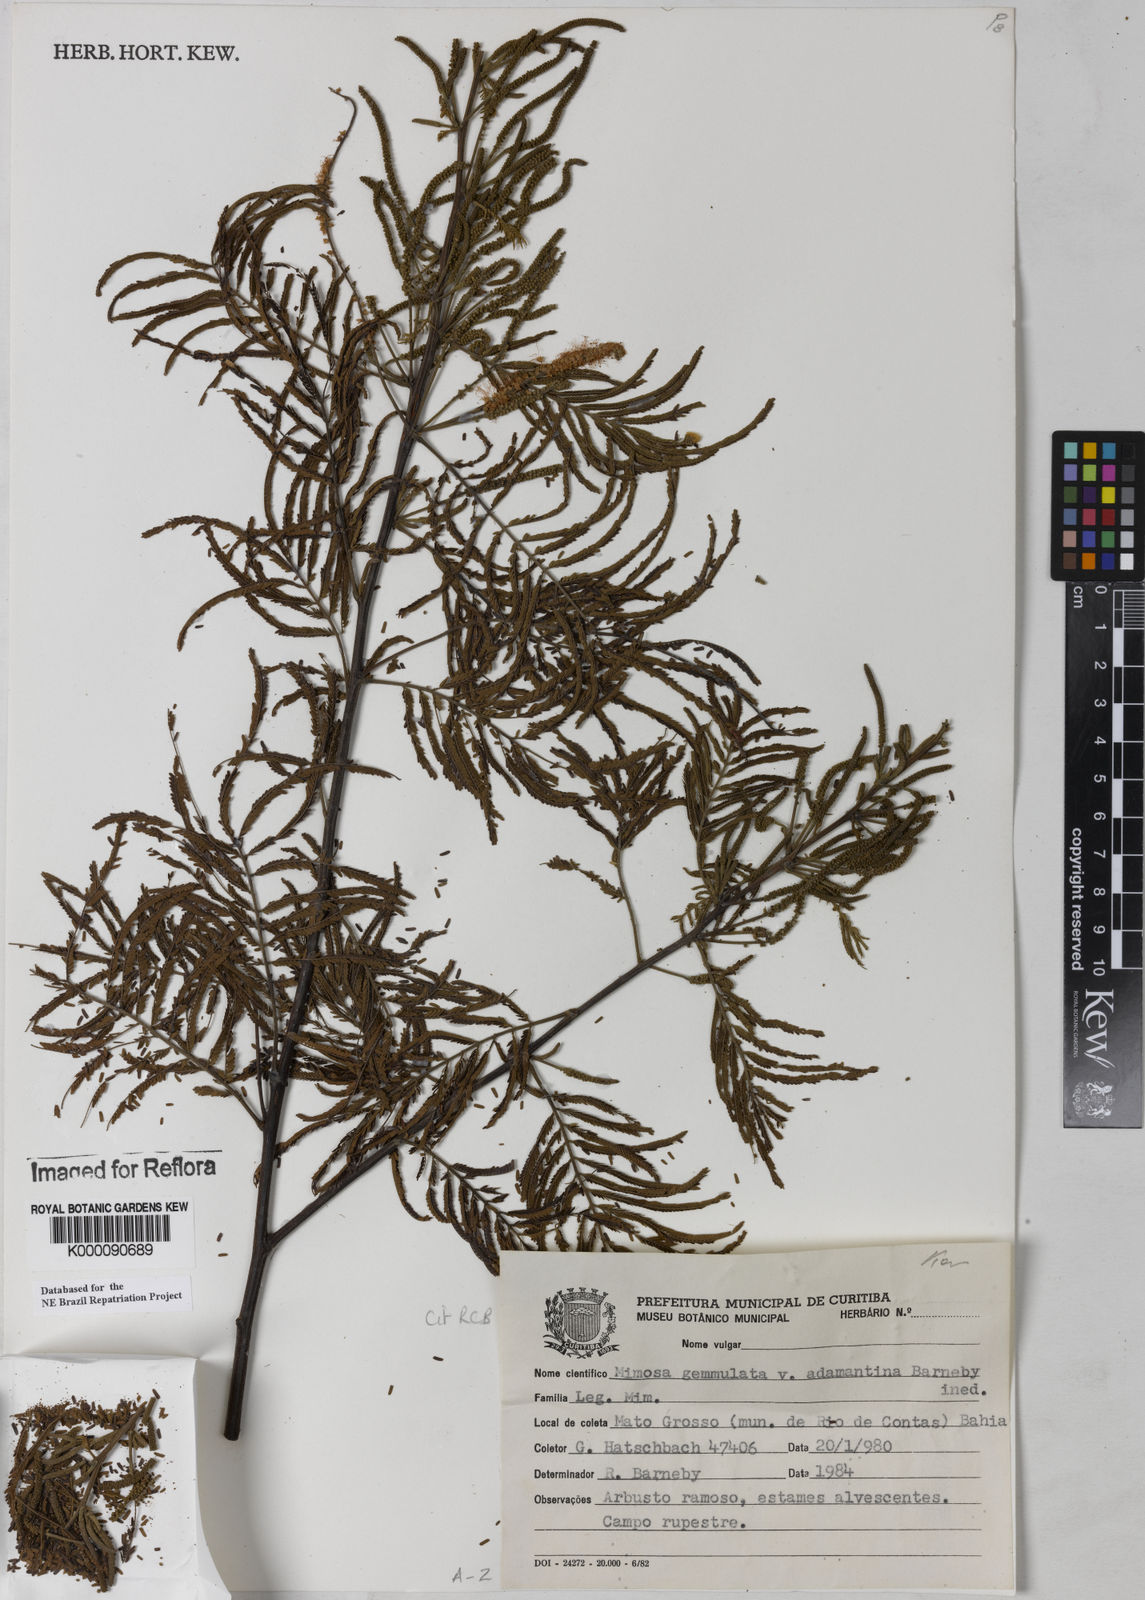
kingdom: Plantae
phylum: Tracheophyta
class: Magnoliopsida
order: Fabales
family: Fabaceae
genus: Mimosa
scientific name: Mimosa gemmulata
